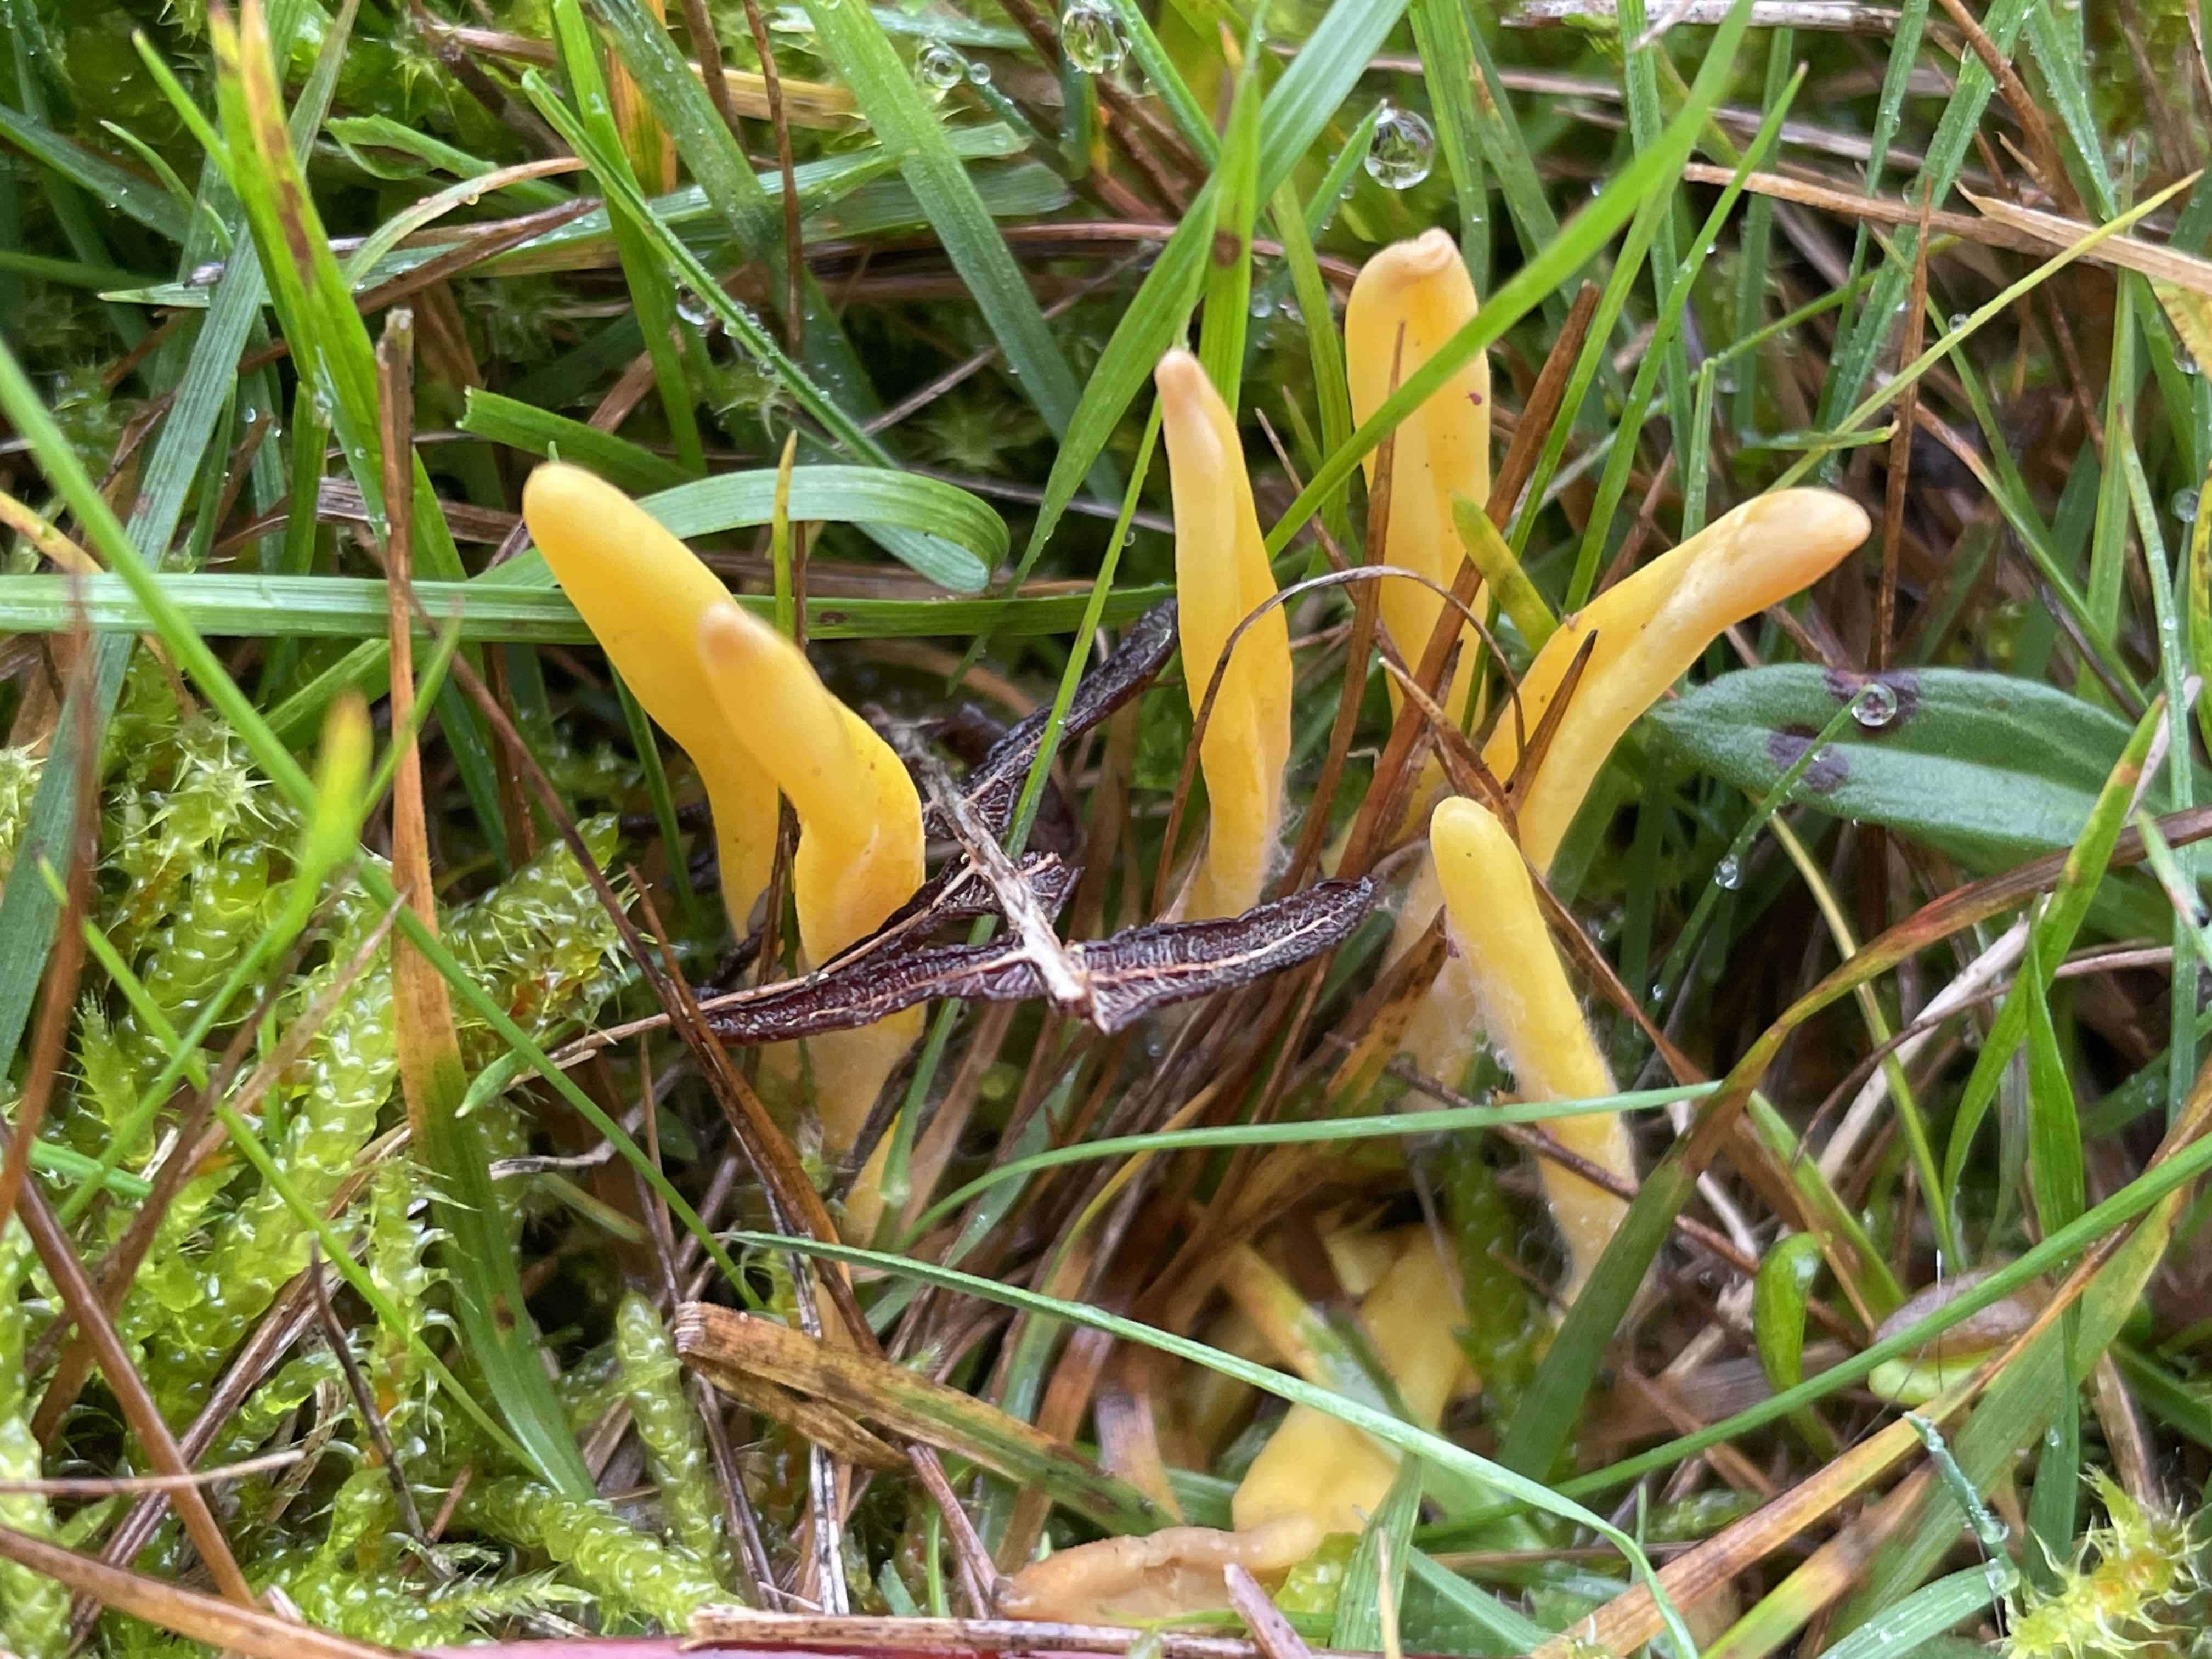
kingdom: Fungi
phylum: Basidiomycota
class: Agaricomycetes
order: Agaricales
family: Clavariaceae
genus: Clavulinopsis
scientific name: Clavulinopsis
